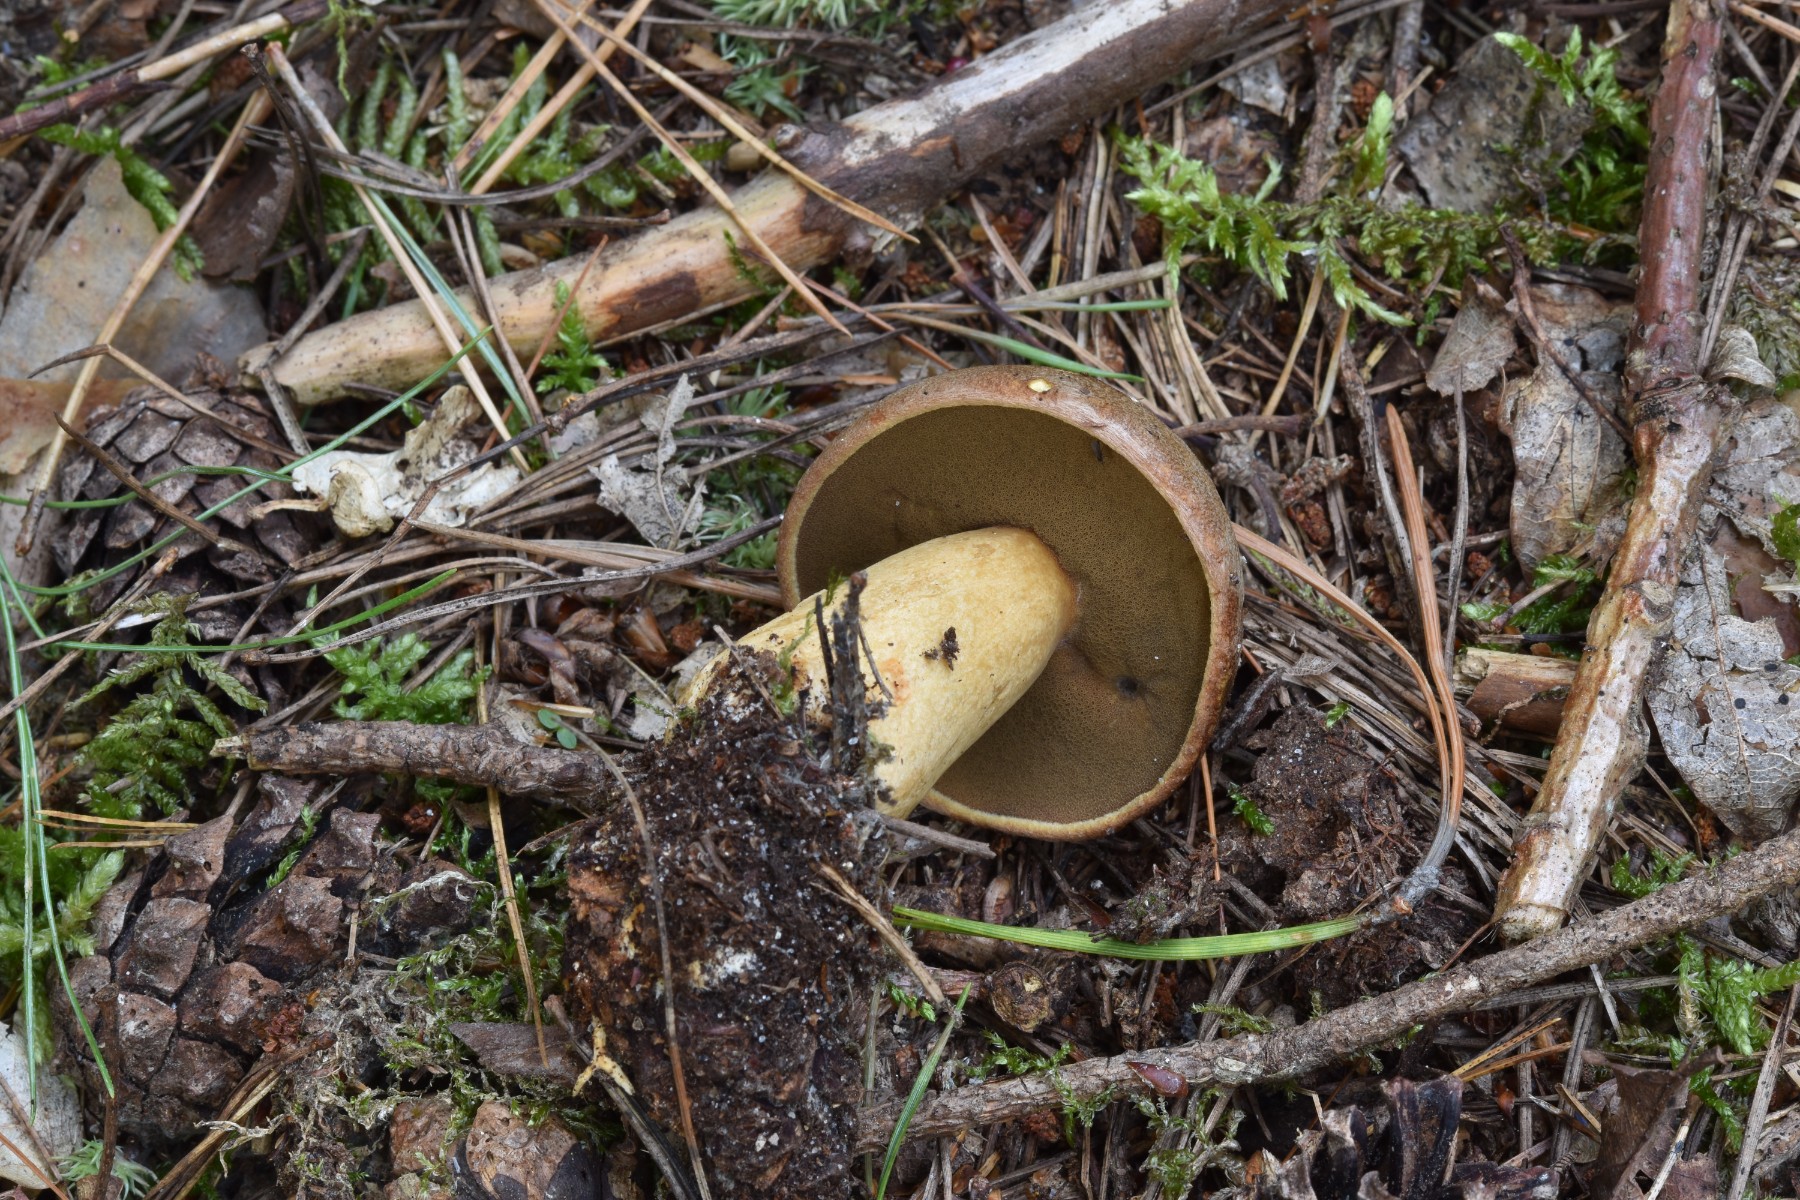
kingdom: Fungi
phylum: Basidiomycota
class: Agaricomycetes
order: Boletales
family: Suillaceae
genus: Suillus
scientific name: Suillus variegatus
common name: broget slimrørhat
